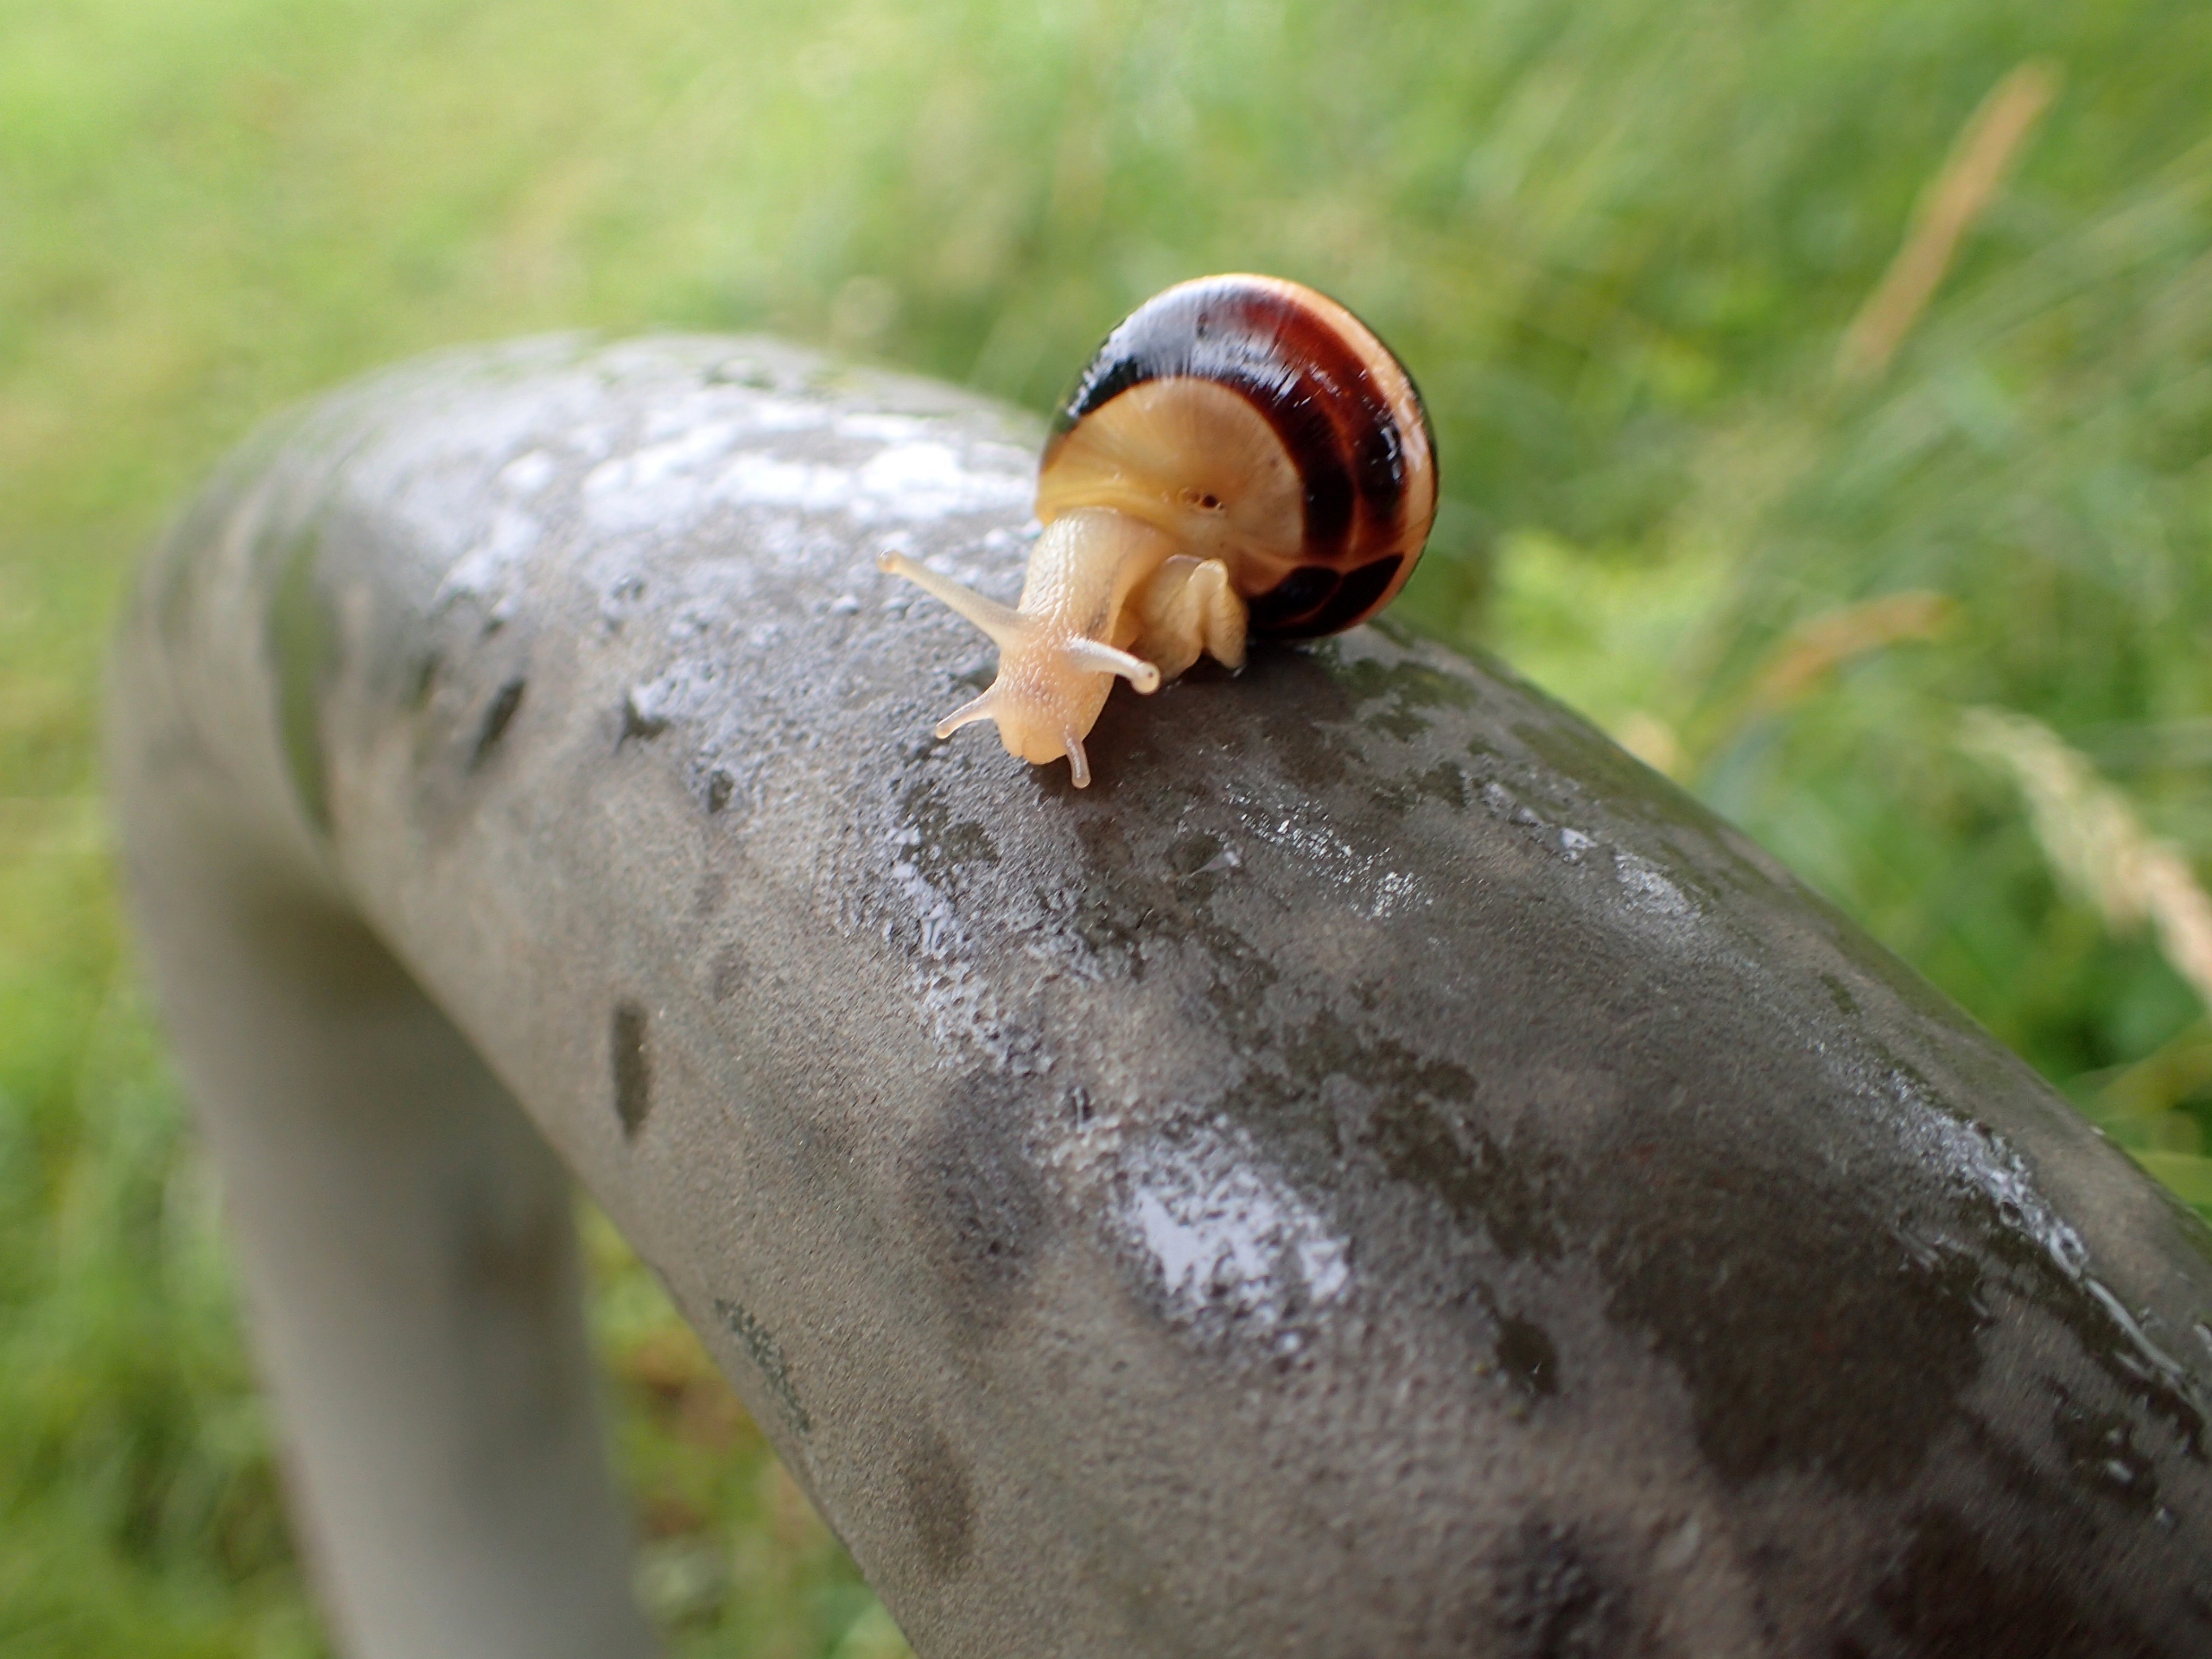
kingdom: Animalia
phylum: Mollusca
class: Gastropoda
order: Stylommatophora
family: Helicidae
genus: Cepaea
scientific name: Cepaea hortensis
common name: Havesnegl
